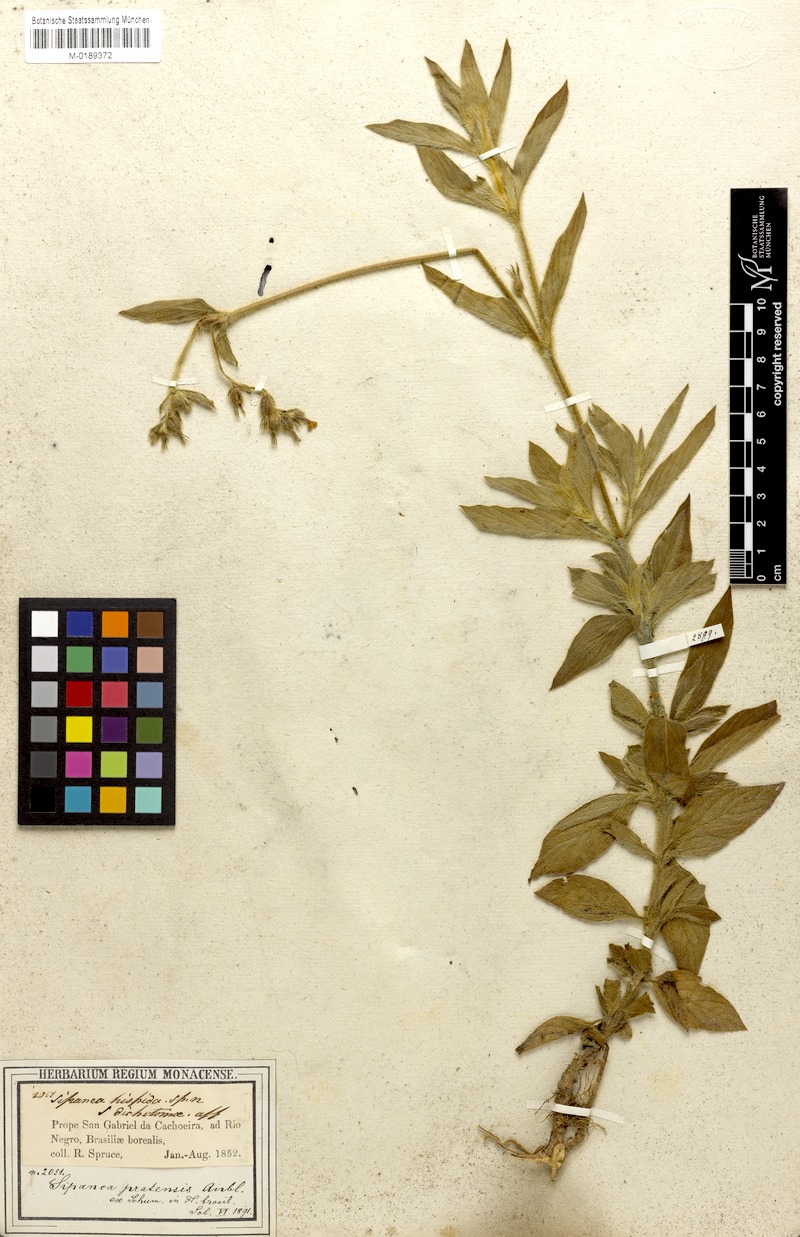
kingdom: Plantae
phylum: Tracheophyta
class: Magnoliopsida
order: Gentianales
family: Rubiaceae
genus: Sipanea
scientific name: Sipanea hispida
